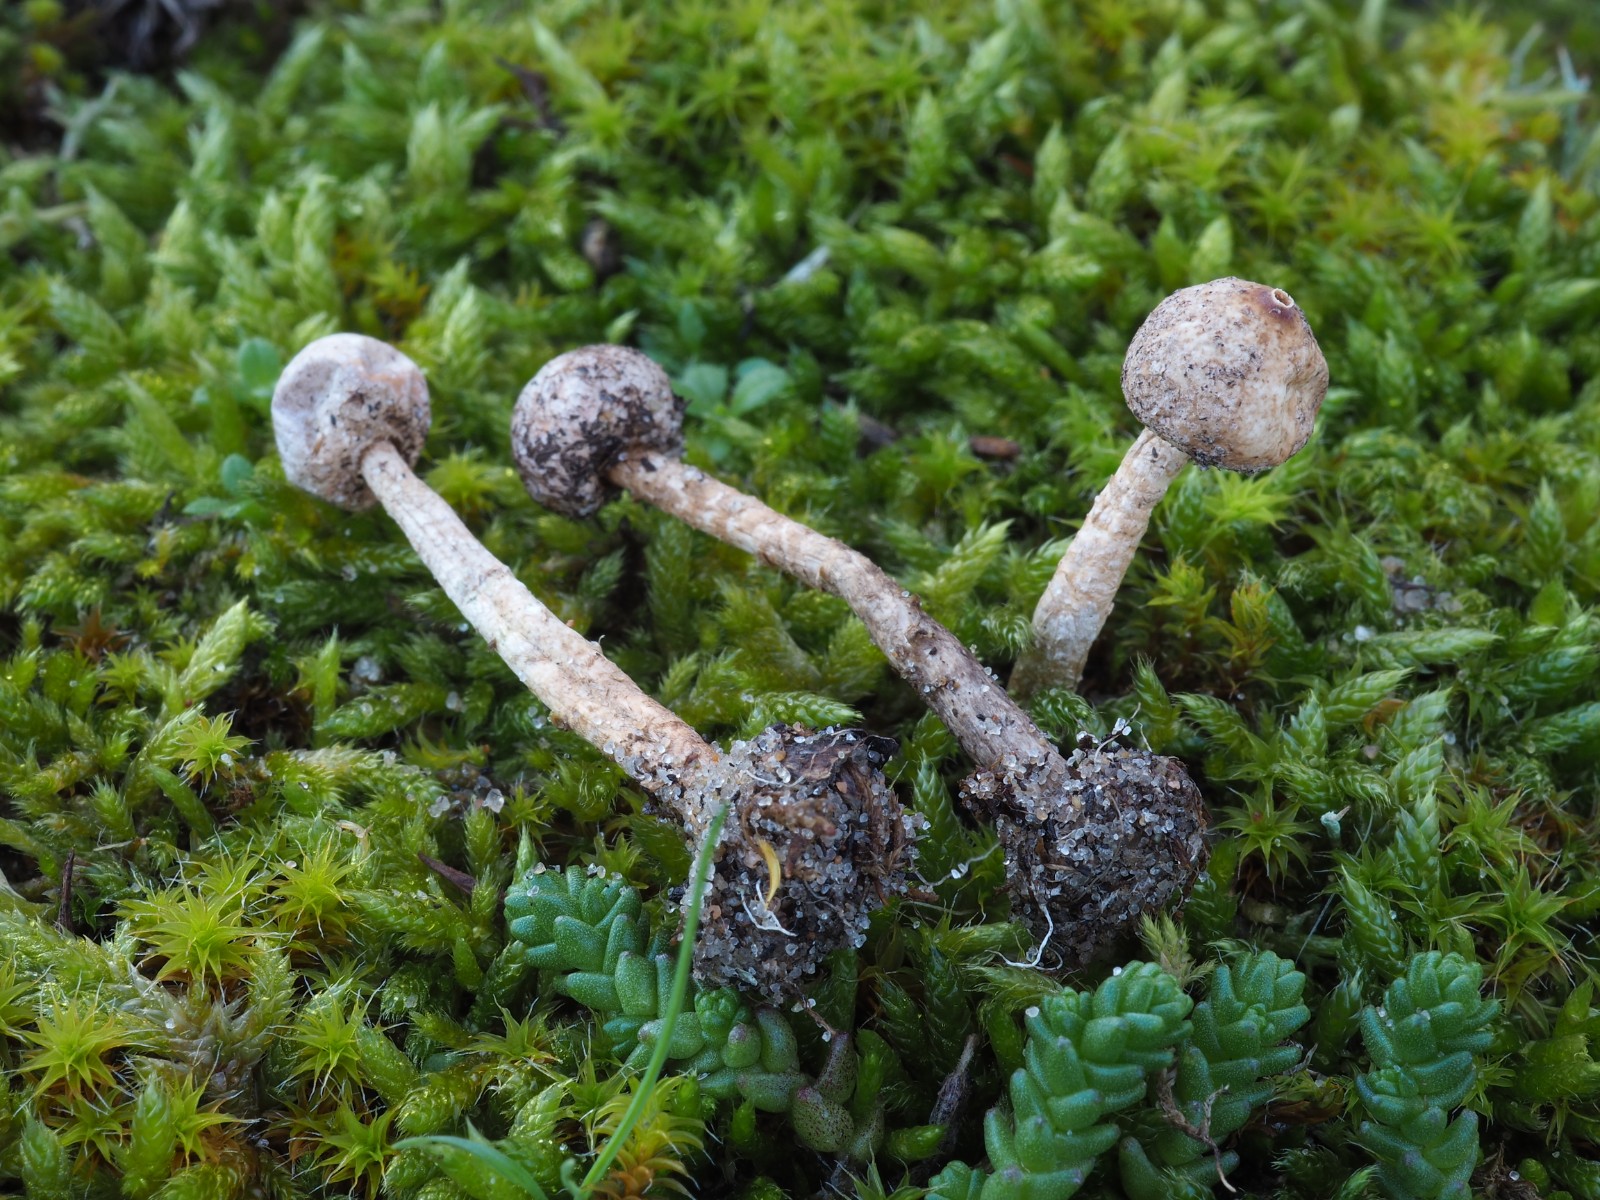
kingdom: Fungi
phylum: Basidiomycota
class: Agaricomycetes
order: Agaricales
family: Agaricaceae
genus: Tulostoma
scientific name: Tulostoma brumale
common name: vinter-stilkbovist
